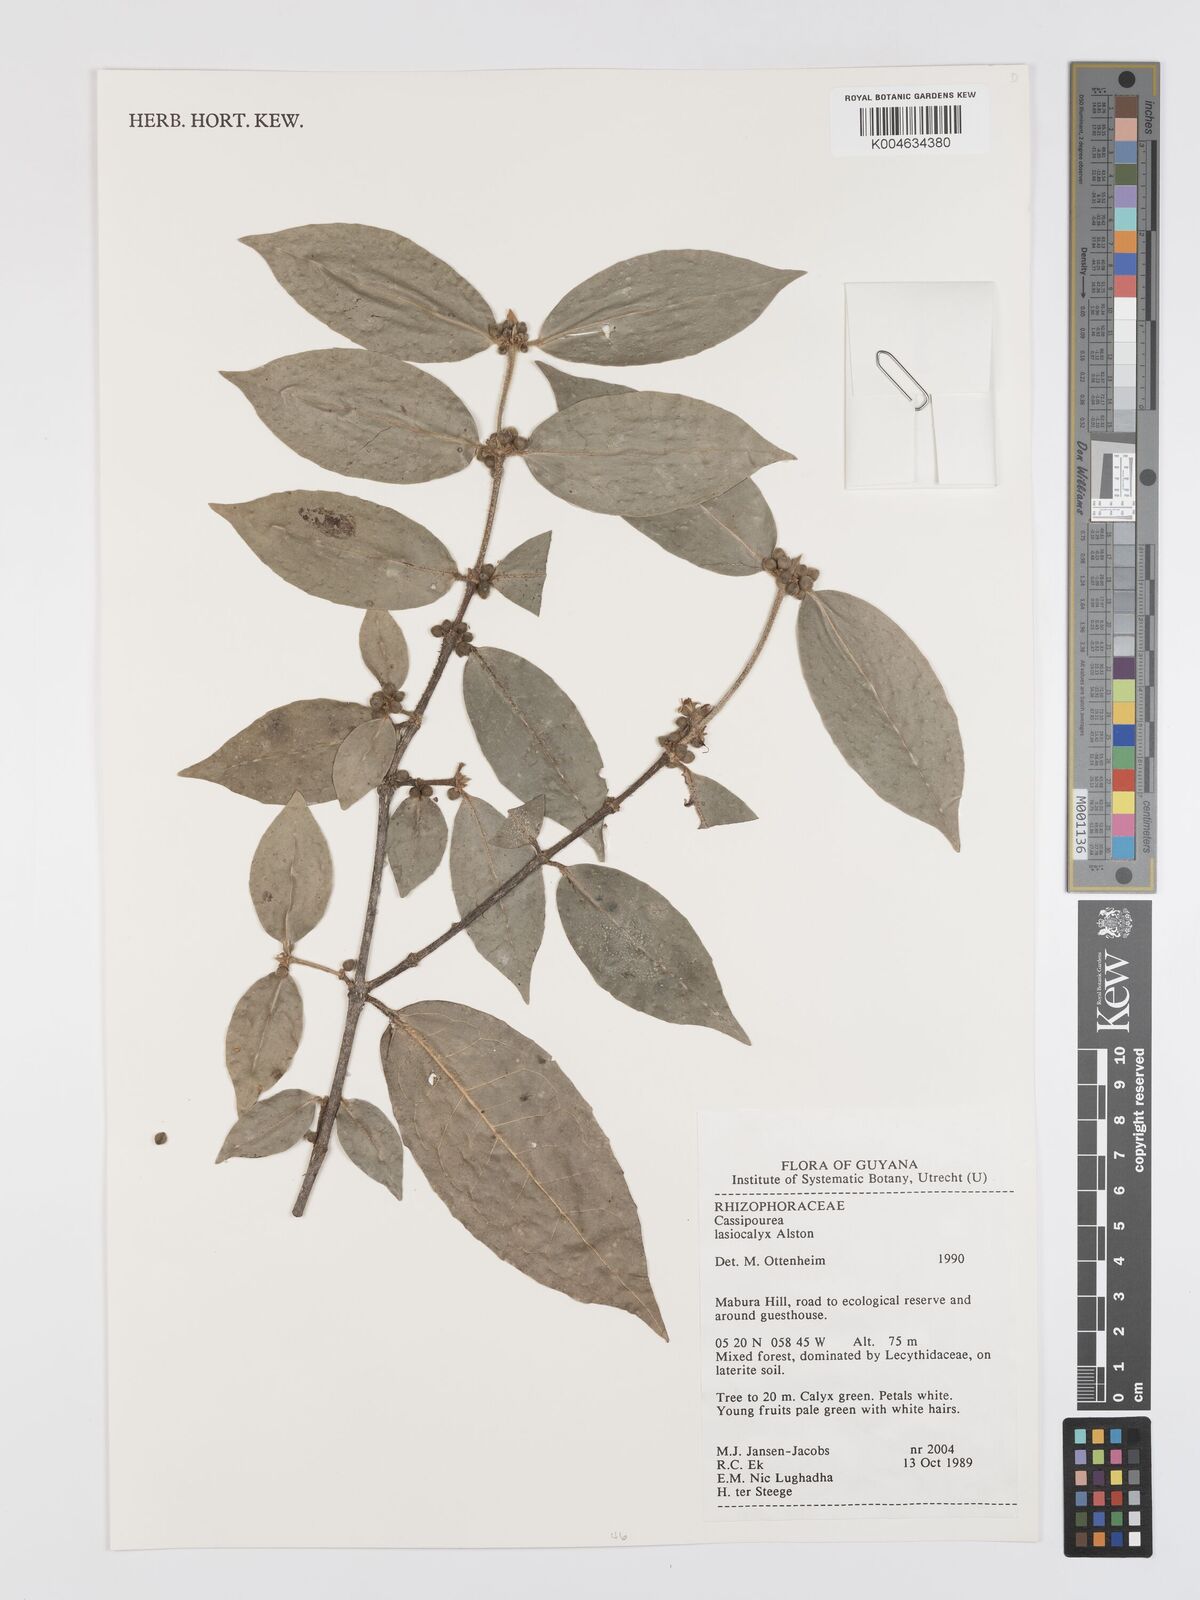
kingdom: Plantae
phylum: Tracheophyta
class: Magnoliopsida
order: Malpighiales
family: Rhizophoraceae
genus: Cassipourea
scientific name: Cassipourea lasiocalyx
